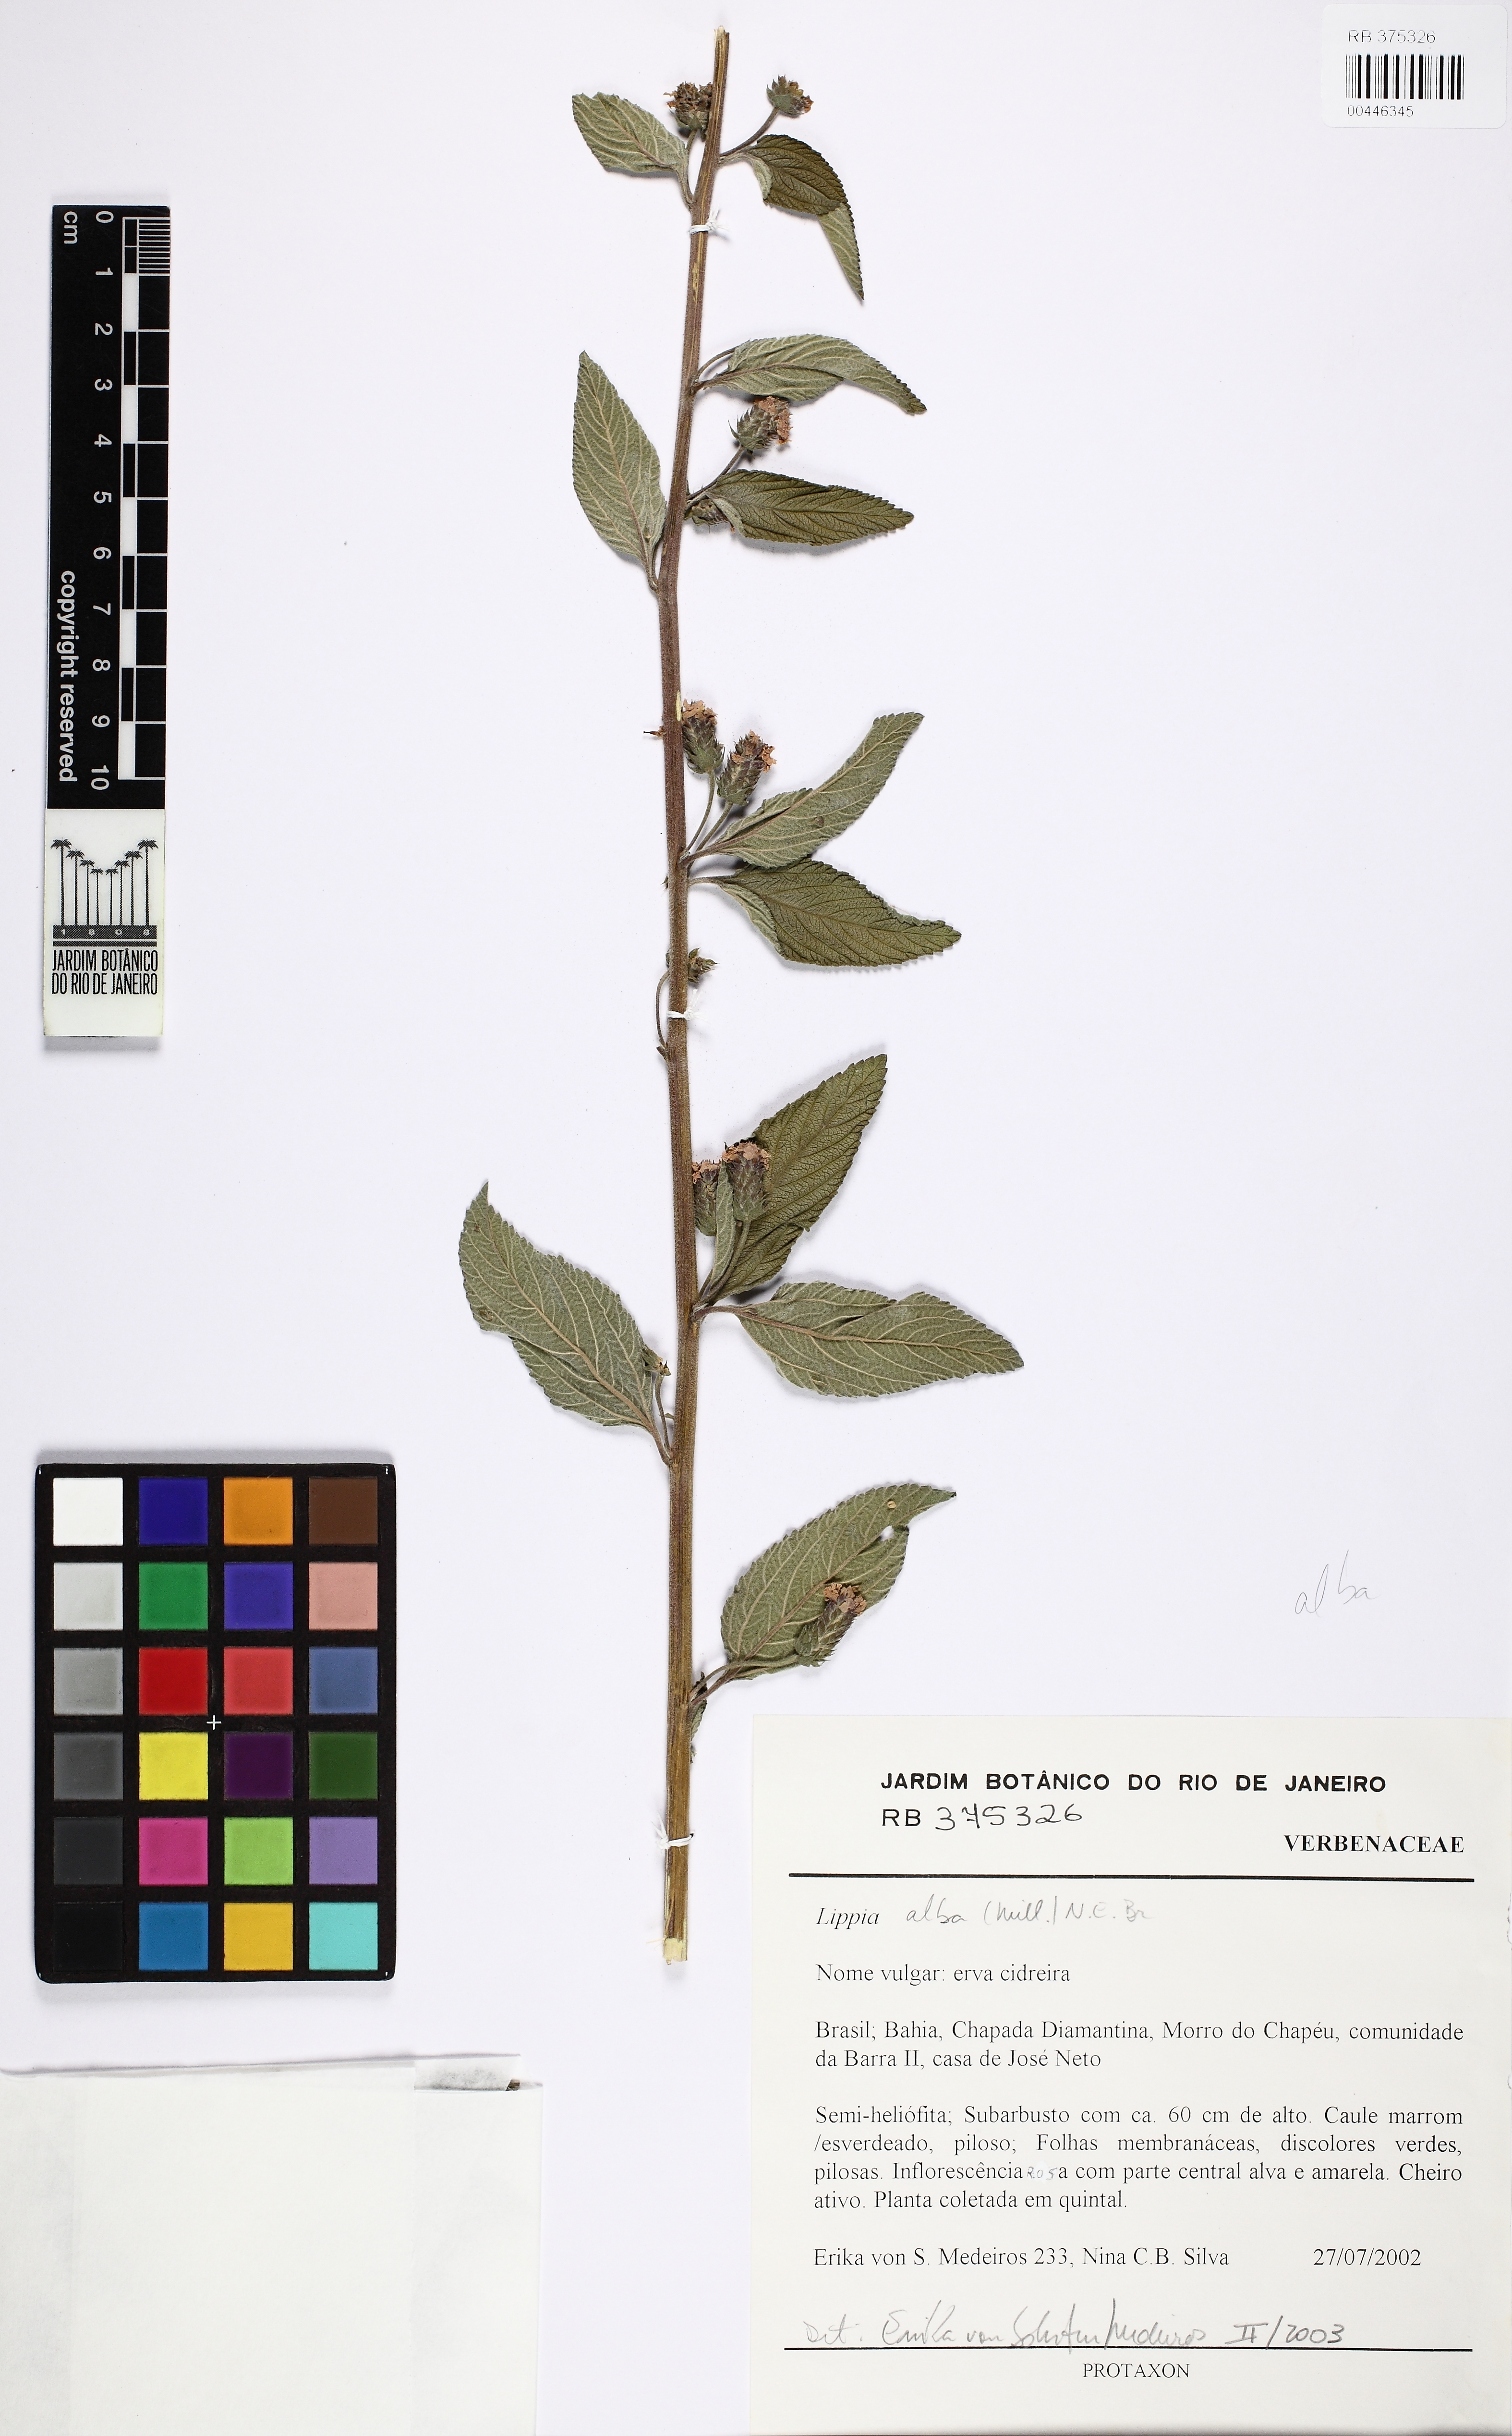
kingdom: Plantae
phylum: Tracheophyta
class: Magnoliopsida
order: Lamiales
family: Verbenaceae
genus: Lippia
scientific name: Lippia alba
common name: Bushy matgrass
